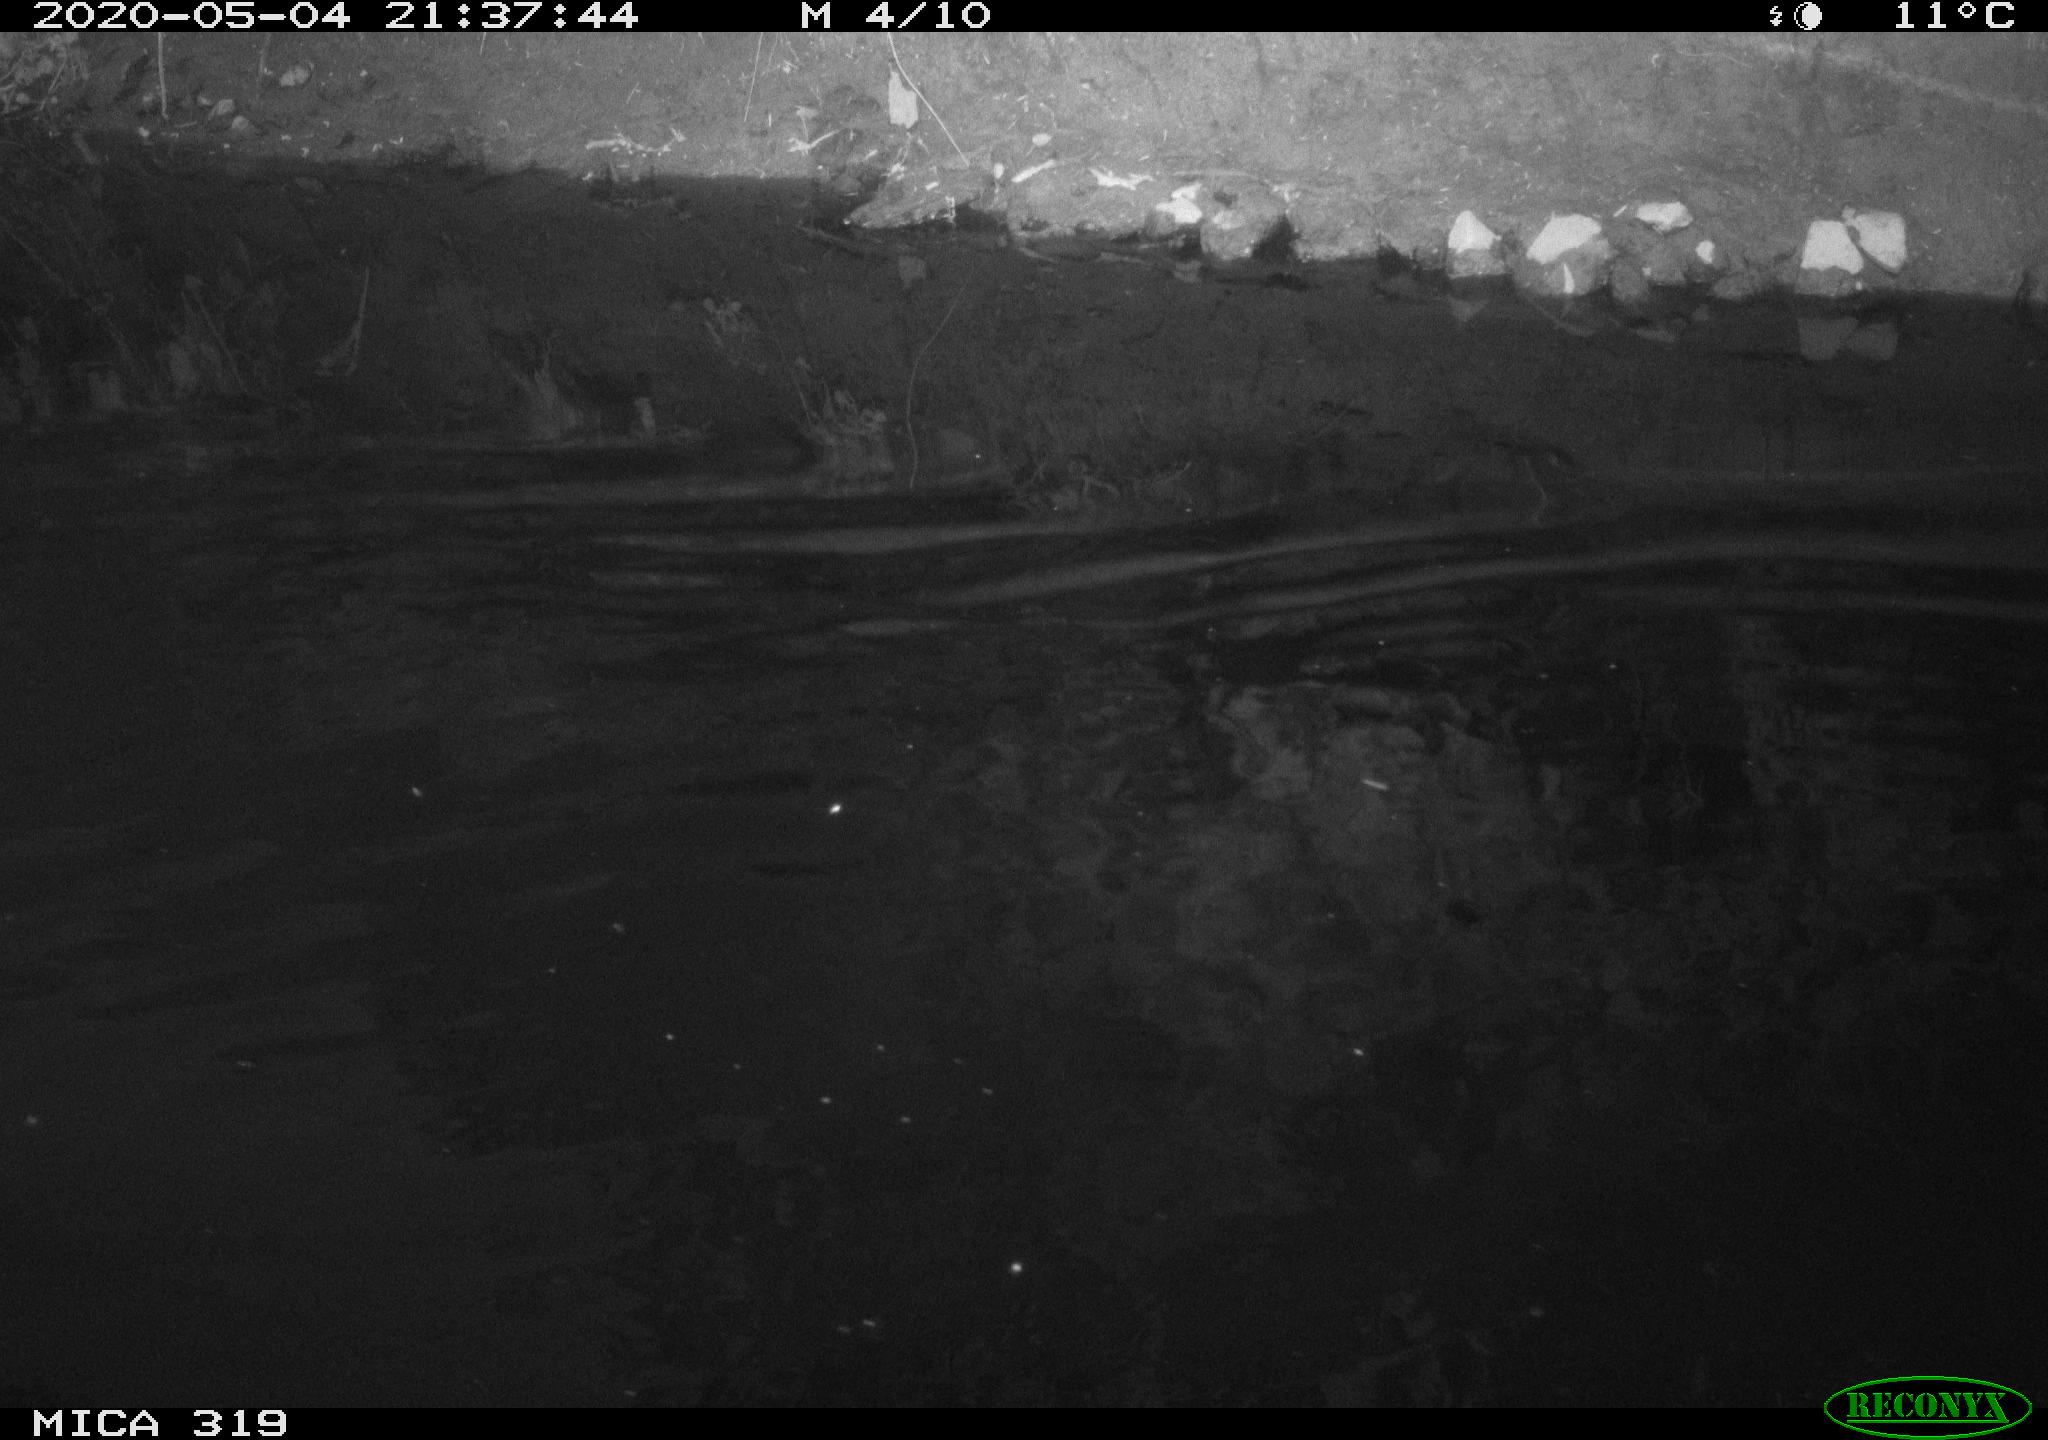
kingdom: Animalia
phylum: Chordata
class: Aves
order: Anseriformes
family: Anatidae
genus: Anas
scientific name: Anas platyrhynchos
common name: Mallard
